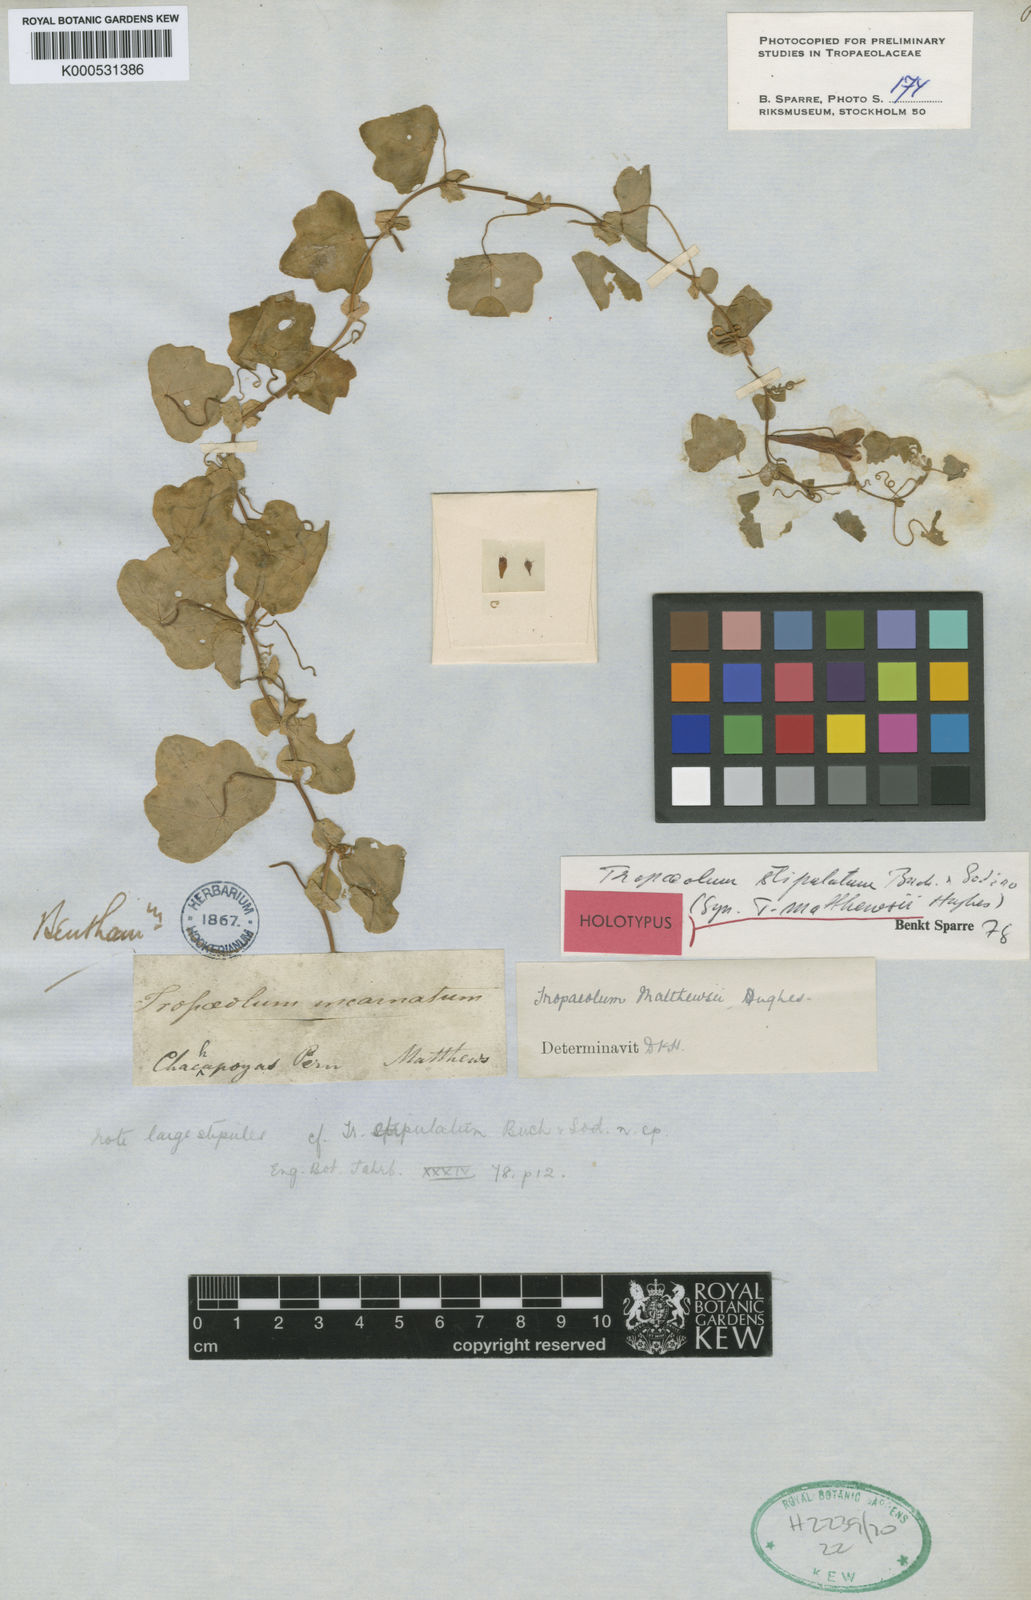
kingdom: Plantae
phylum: Tracheophyta
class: Magnoliopsida
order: Brassicales
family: Tropaeolaceae
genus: Tropaeolum
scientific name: Tropaeolum stipulatum
